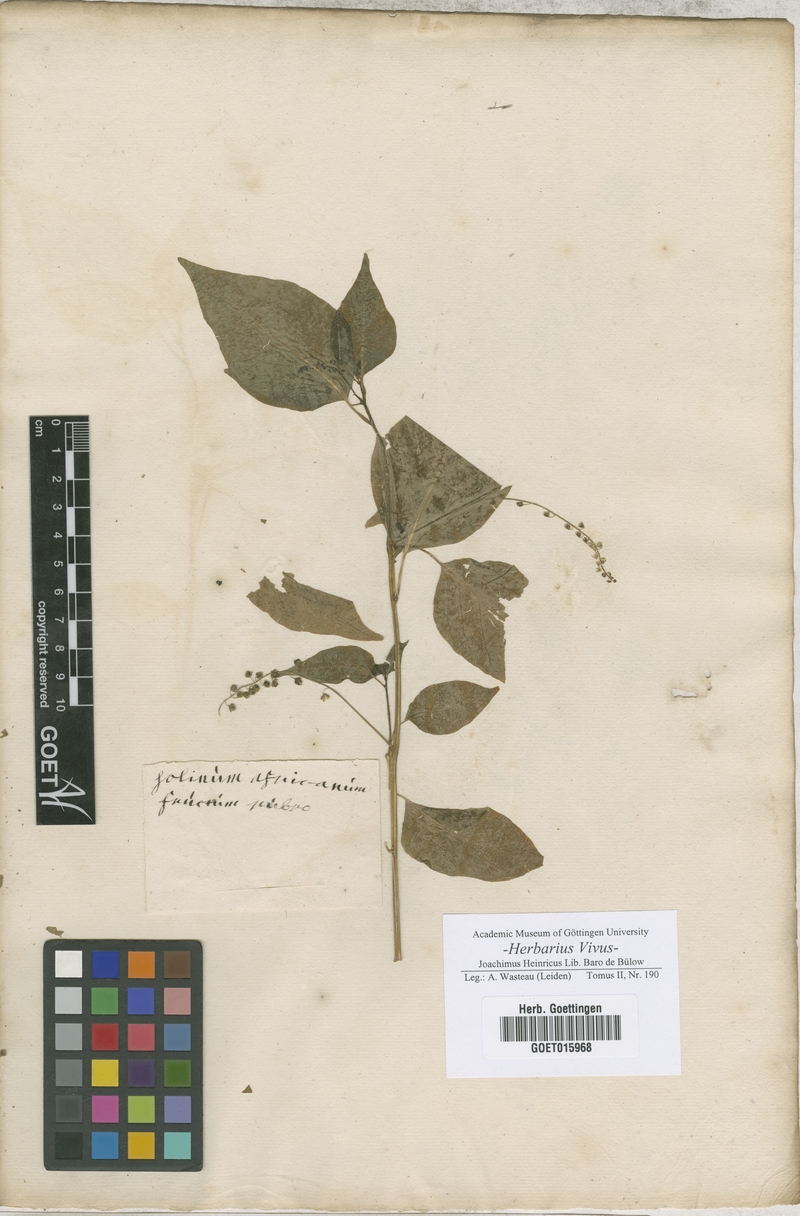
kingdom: Plantae
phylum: Tracheophyta
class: Magnoliopsida
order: Solanales
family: Solanaceae
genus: Solanum
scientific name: Solanum
